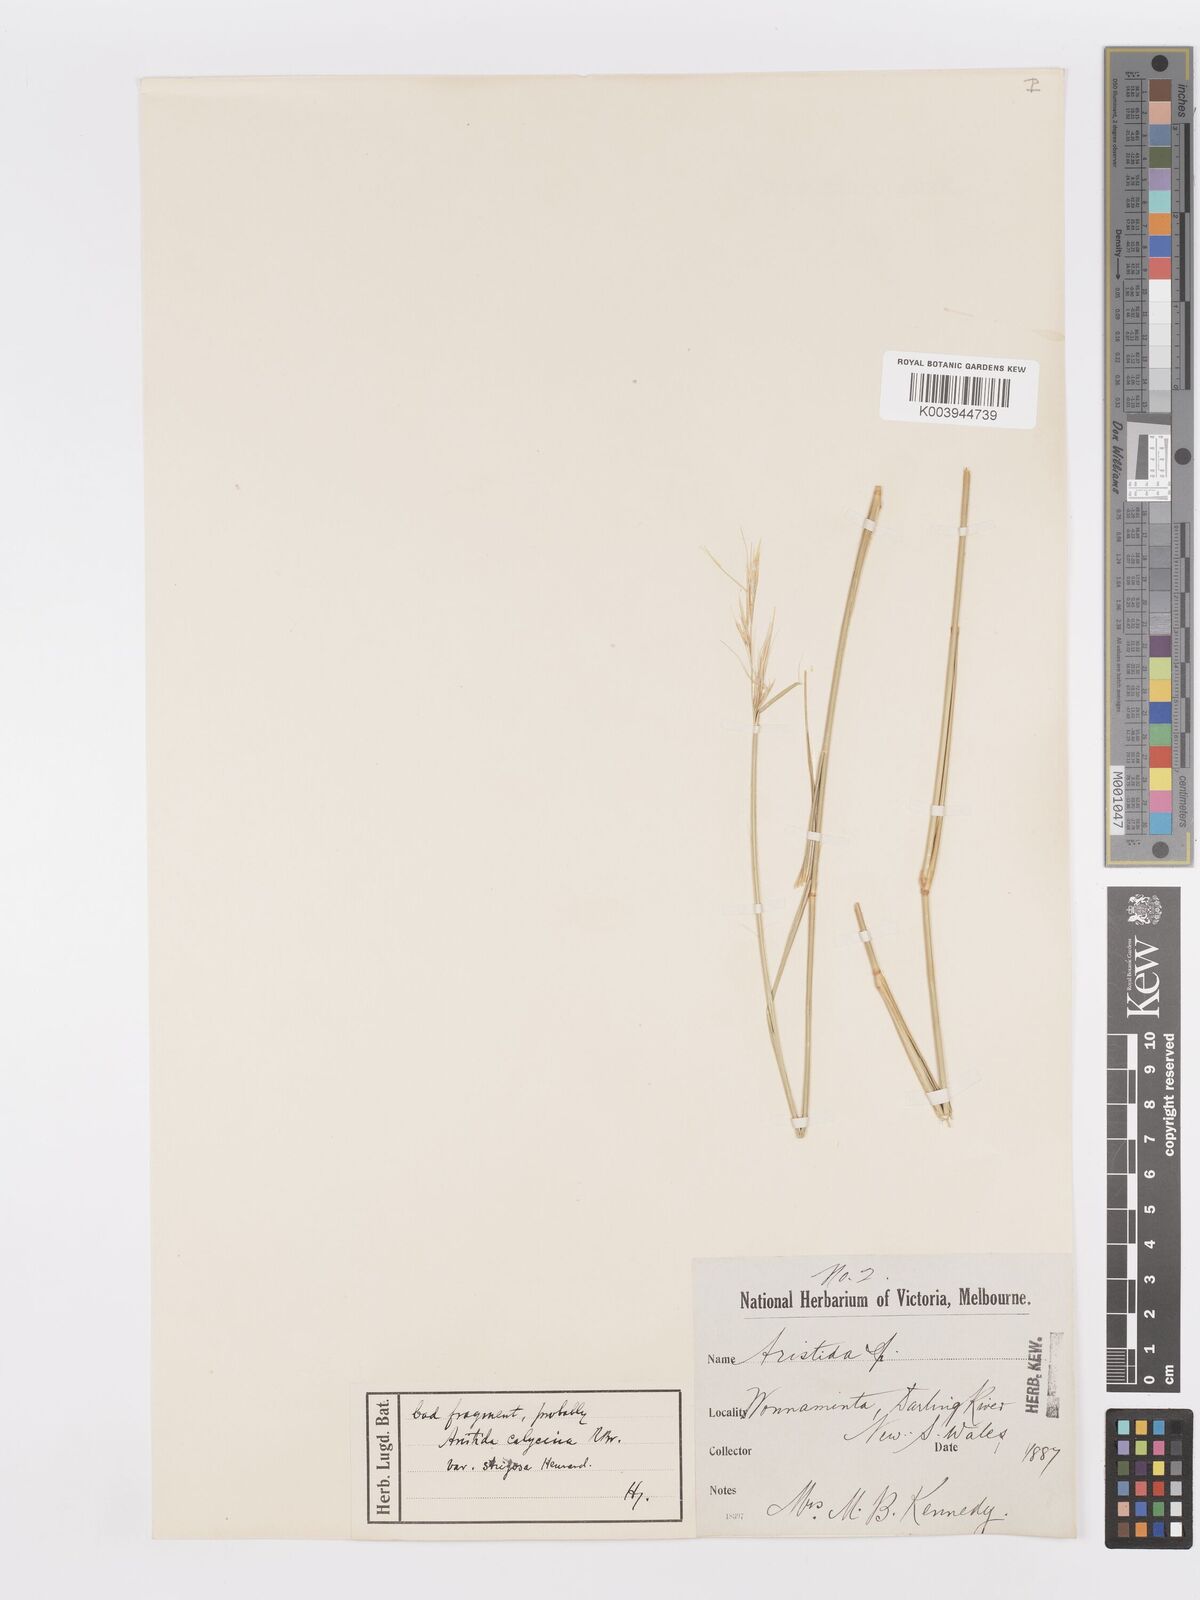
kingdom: Plantae
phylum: Tracheophyta
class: Liliopsida
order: Poales
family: Poaceae
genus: Aristida
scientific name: Aristida calycina
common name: Dark wire grass
